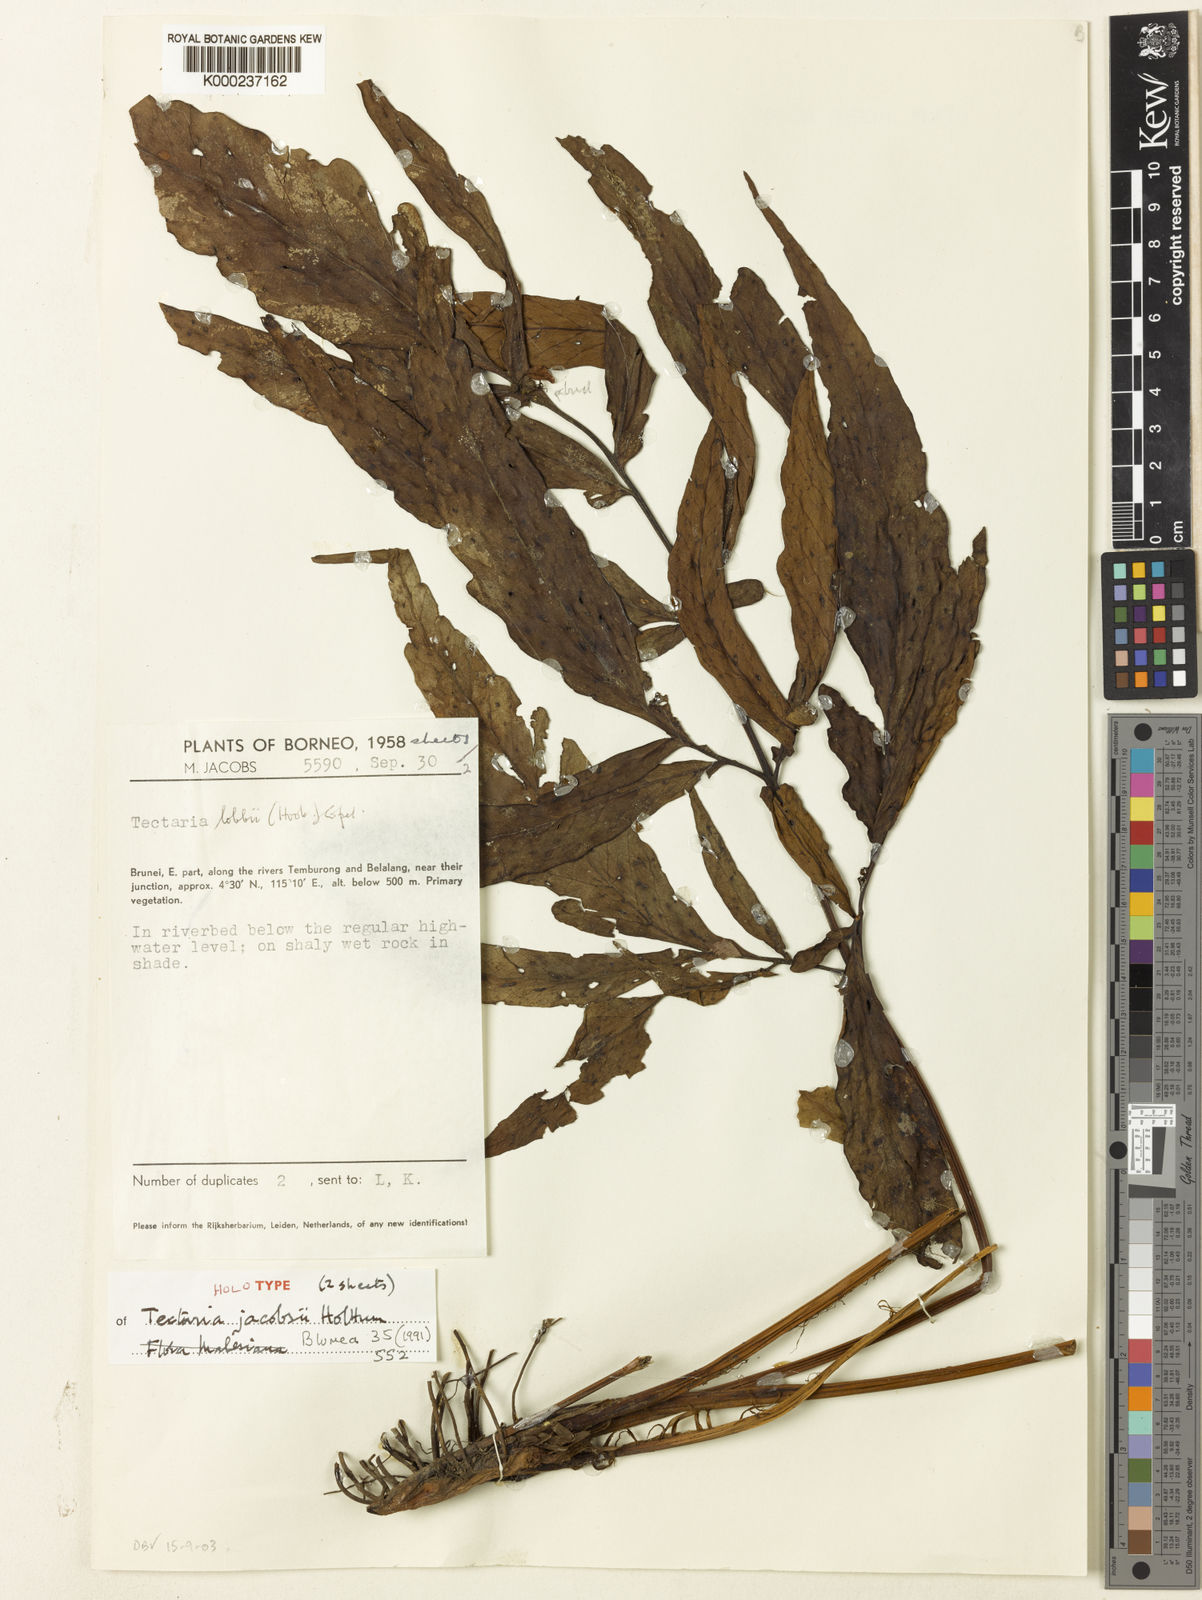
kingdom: Plantae
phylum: Tracheophyta
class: Polypodiopsida
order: Polypodiales
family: Tectariaceae
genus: Tectaria
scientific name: Tectaria jacobsii
